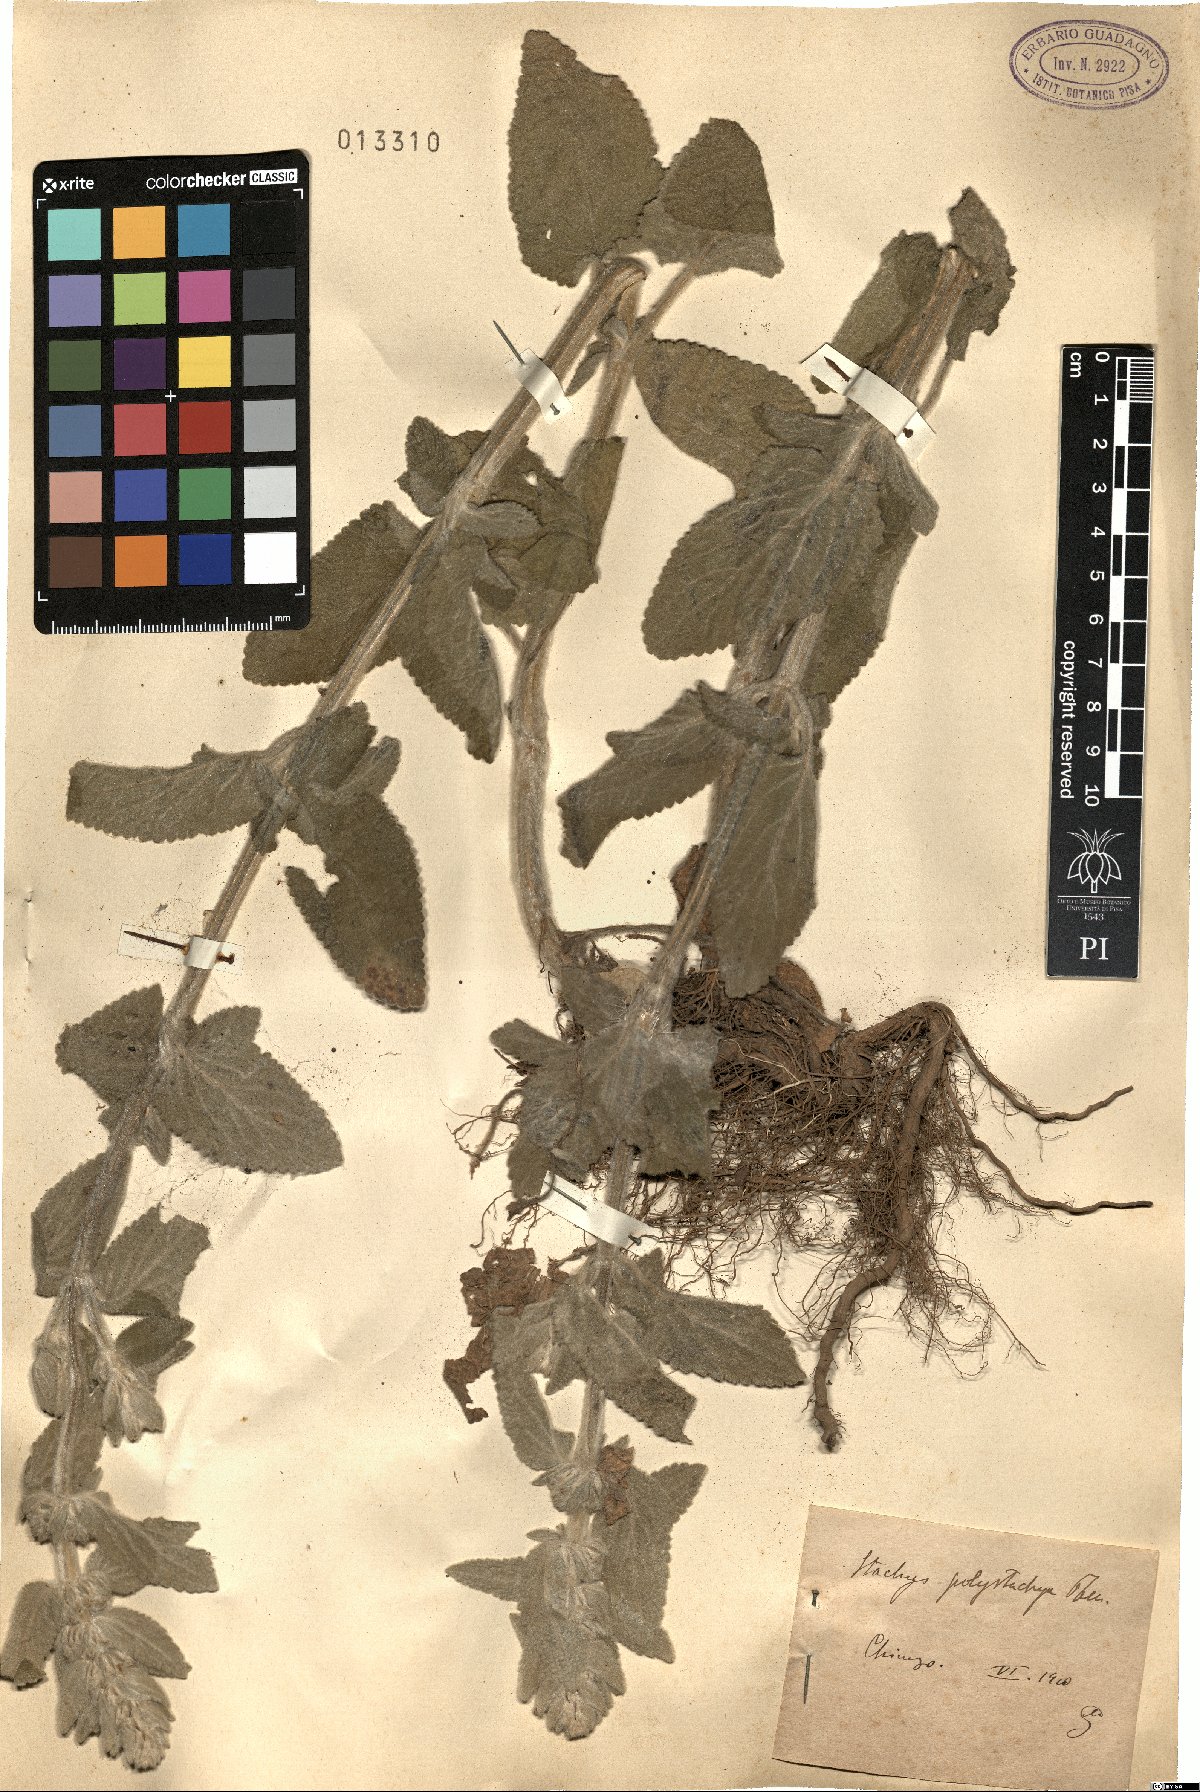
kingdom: Plantae
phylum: Tracheophyta
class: Magnoliopsida
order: Lamiales
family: Lamiaceae
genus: Stachys
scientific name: Stachys germanica
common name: Downy woundwort
